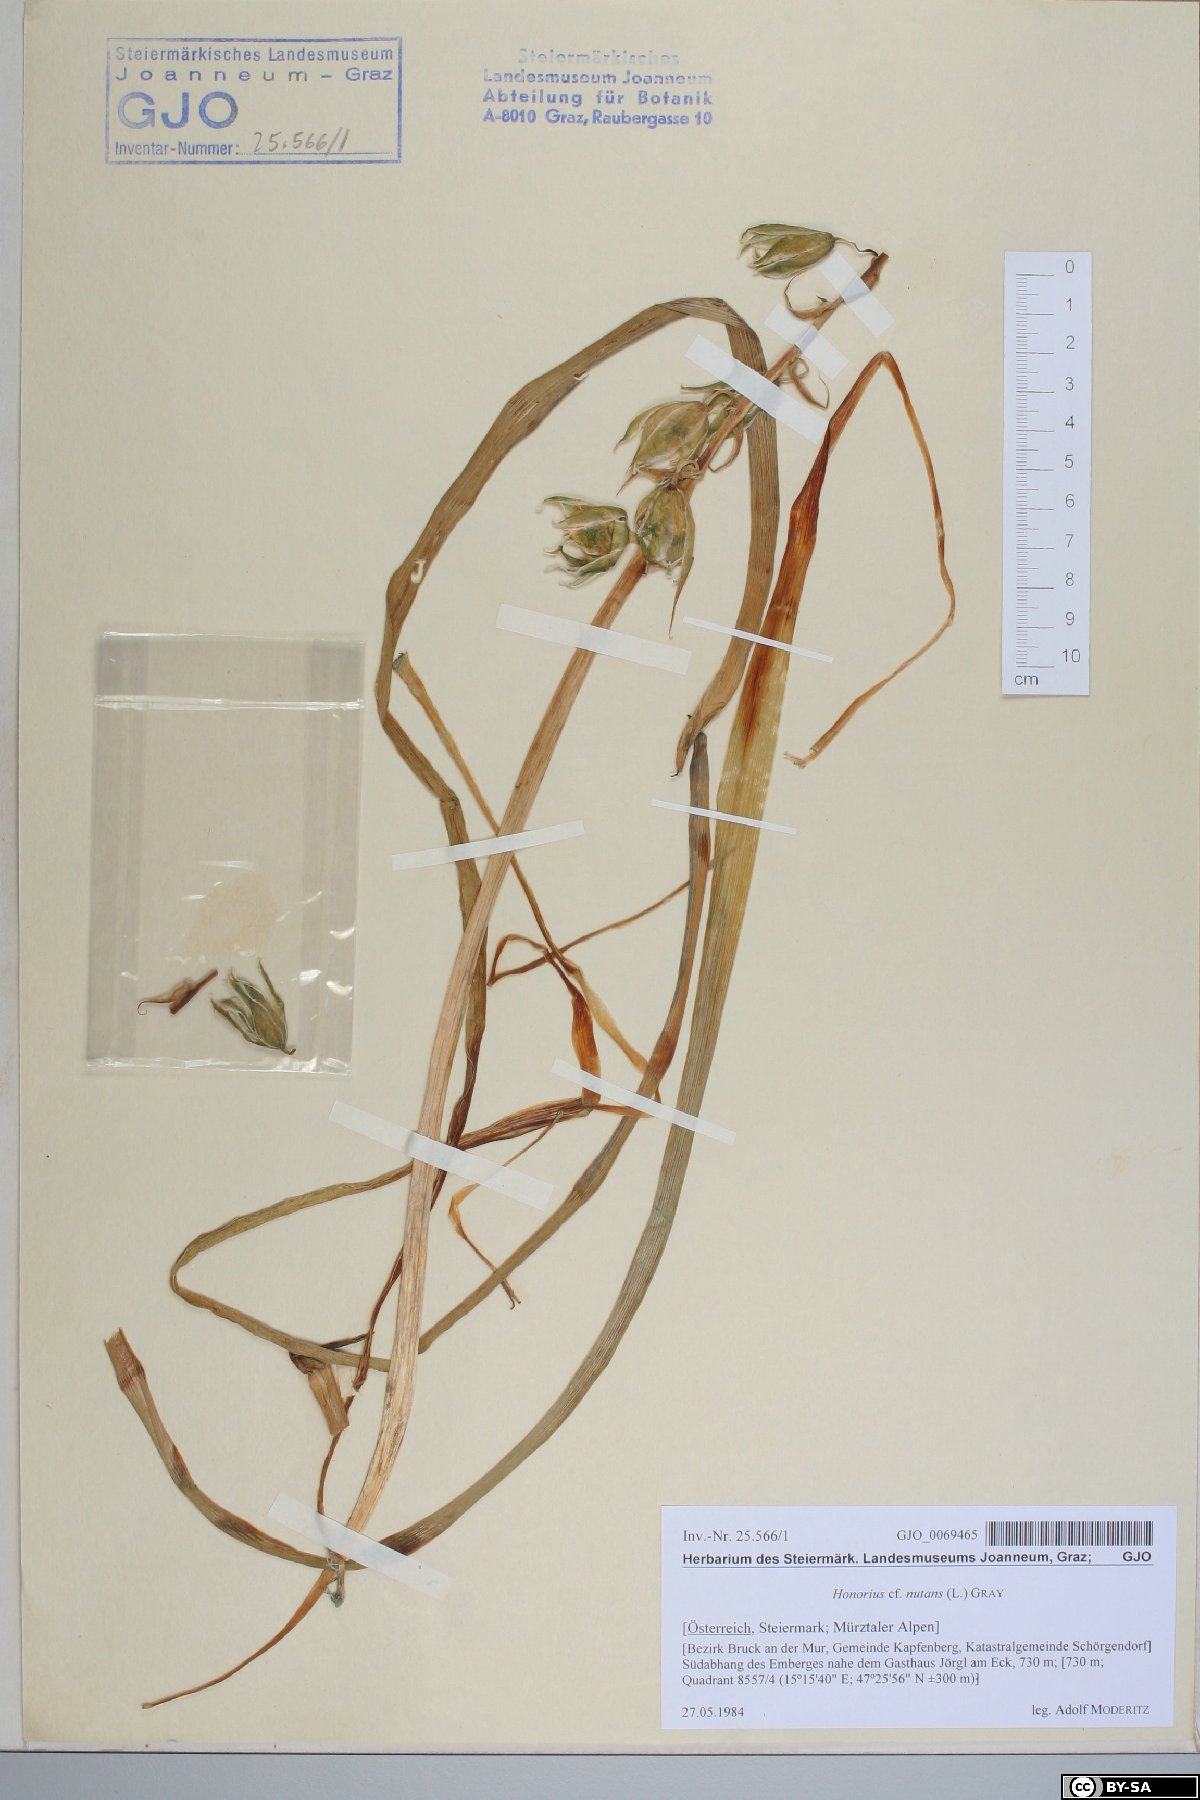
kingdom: Plantae
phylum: Tracheophyta
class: Liliopsida
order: Asparagales
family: Asparagaceae
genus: Ornithogalum
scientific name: Ornithogalum nutans
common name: Drooping star-of-bethlehem
